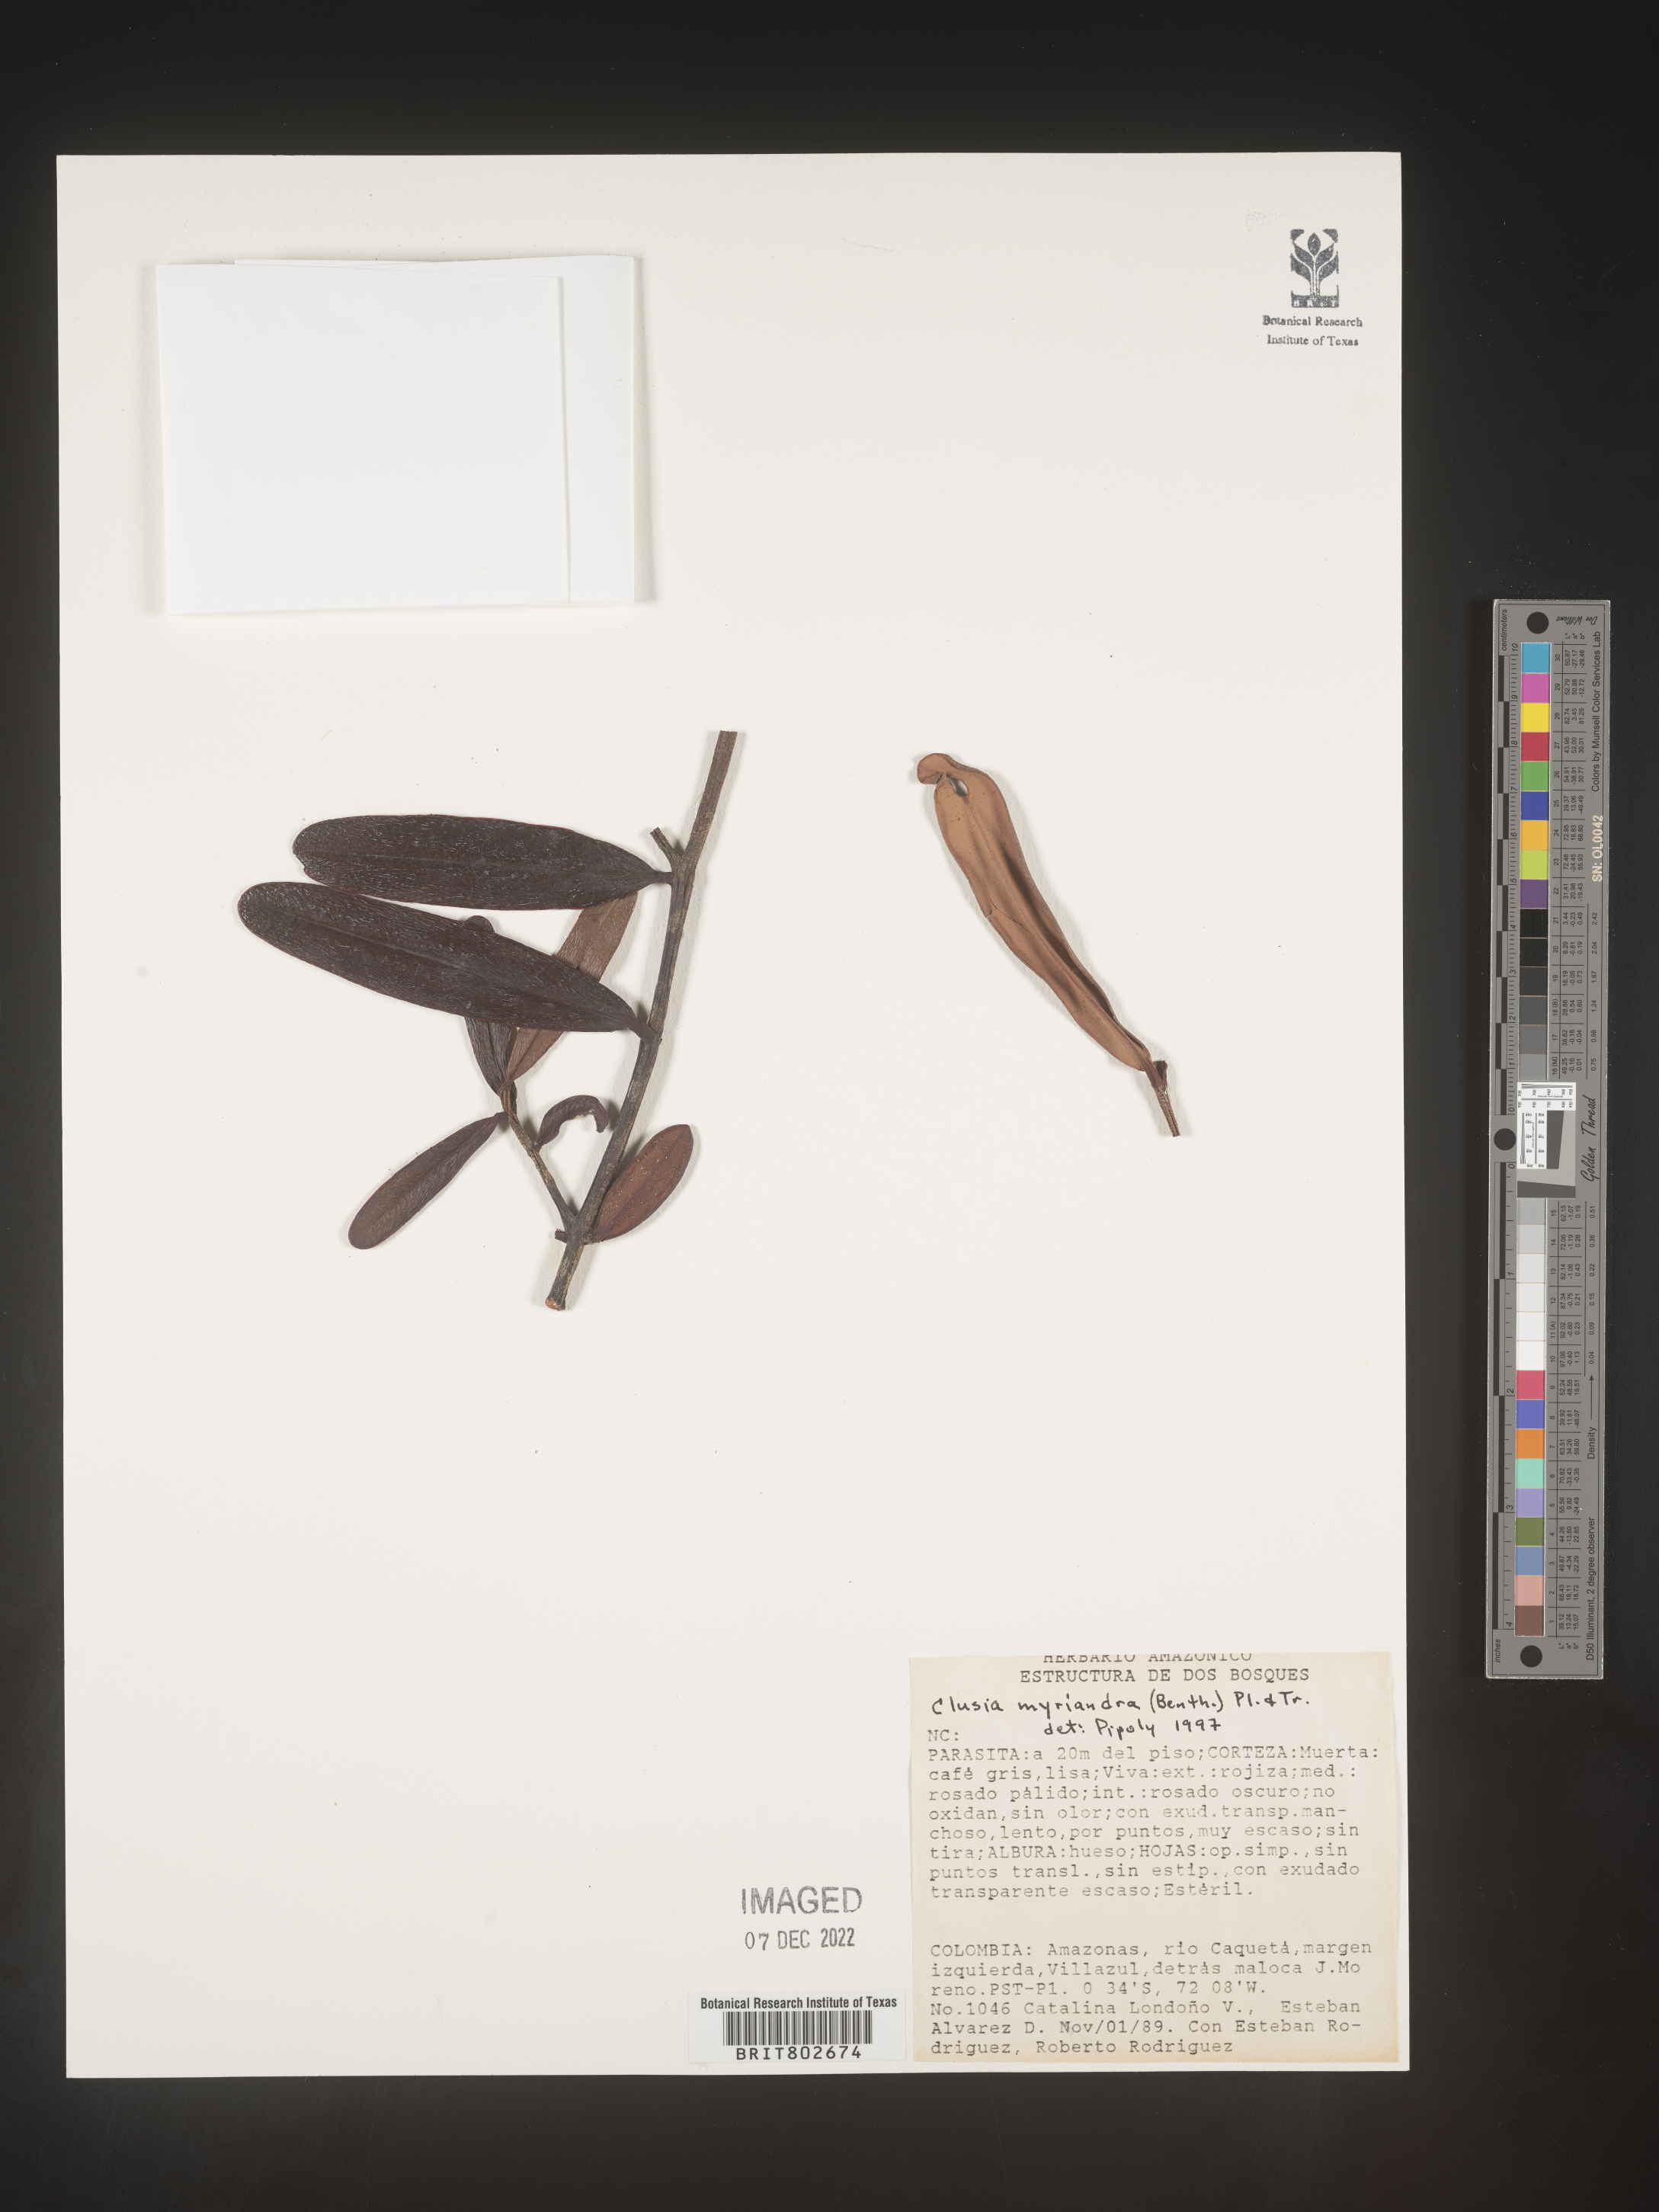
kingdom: Plantae
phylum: Tracheophyta
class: Magnoliopsida
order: Malpighiales
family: Clusiaceae
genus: Clusia
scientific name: Clusia myriandra
